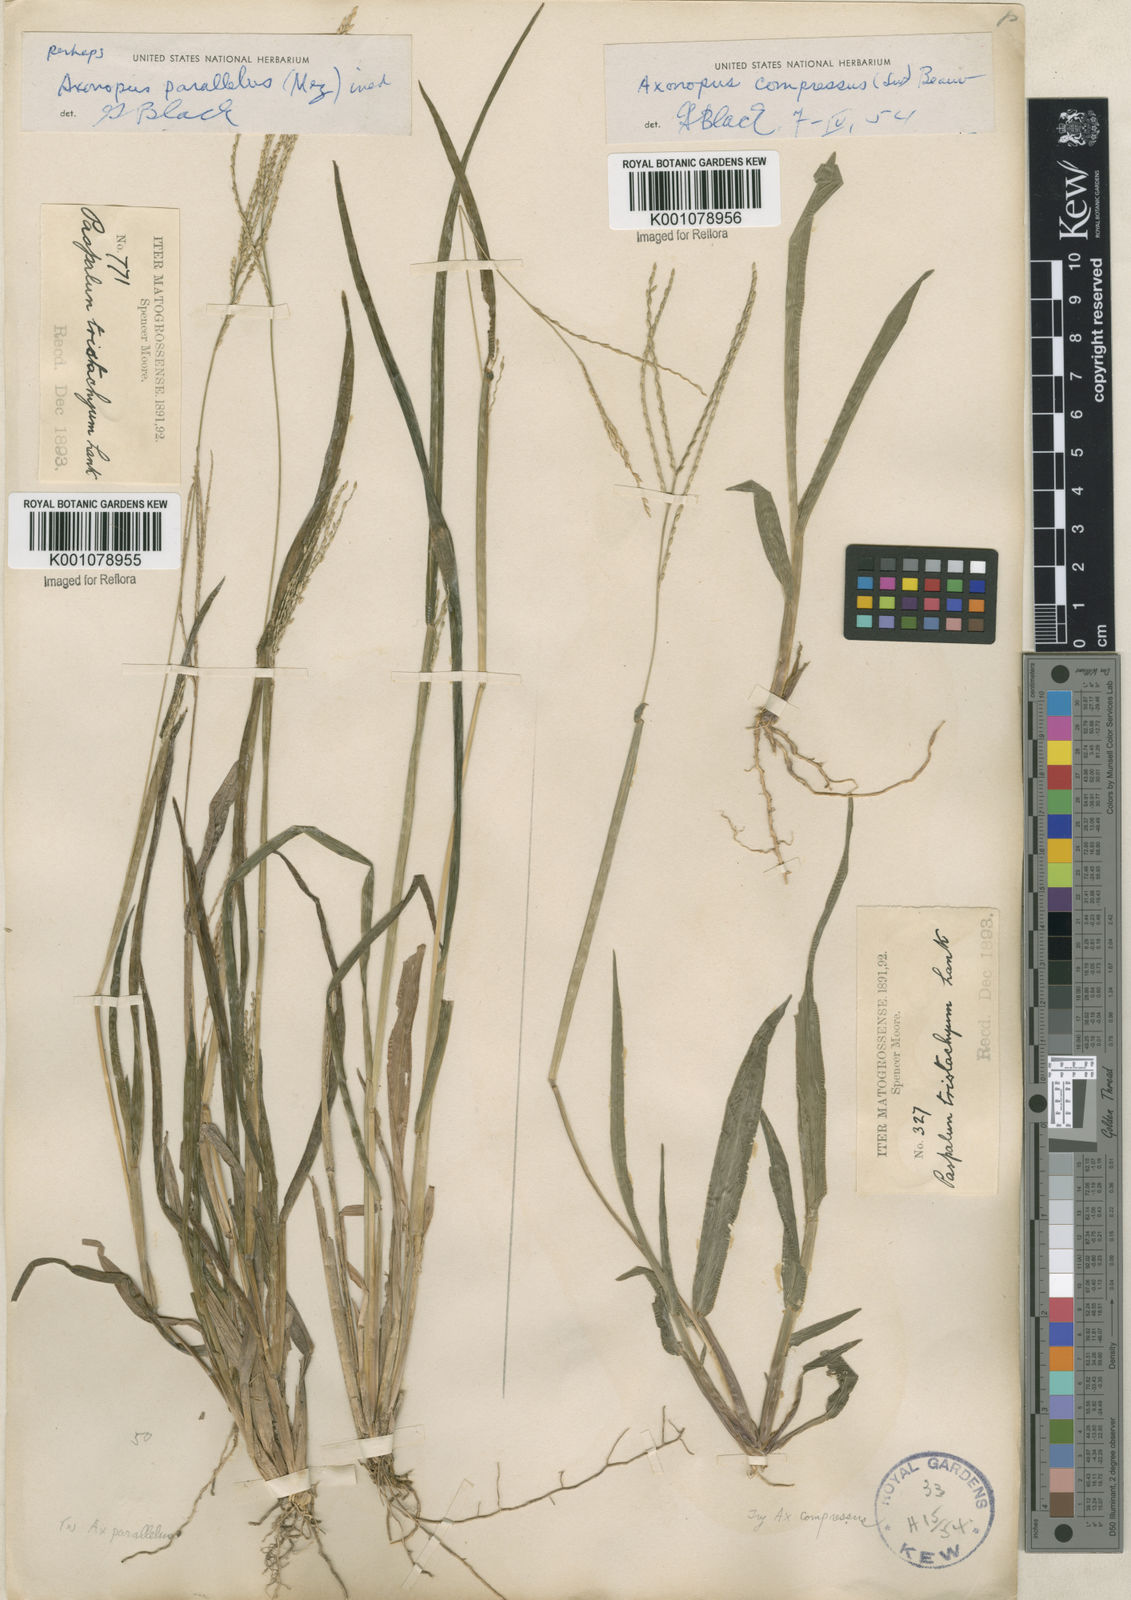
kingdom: Plantae
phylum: Tracheophyta
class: Liliopsida
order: Poales
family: Poaceae
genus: Axonopus
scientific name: Axonopus compressus
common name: American carpet grass
